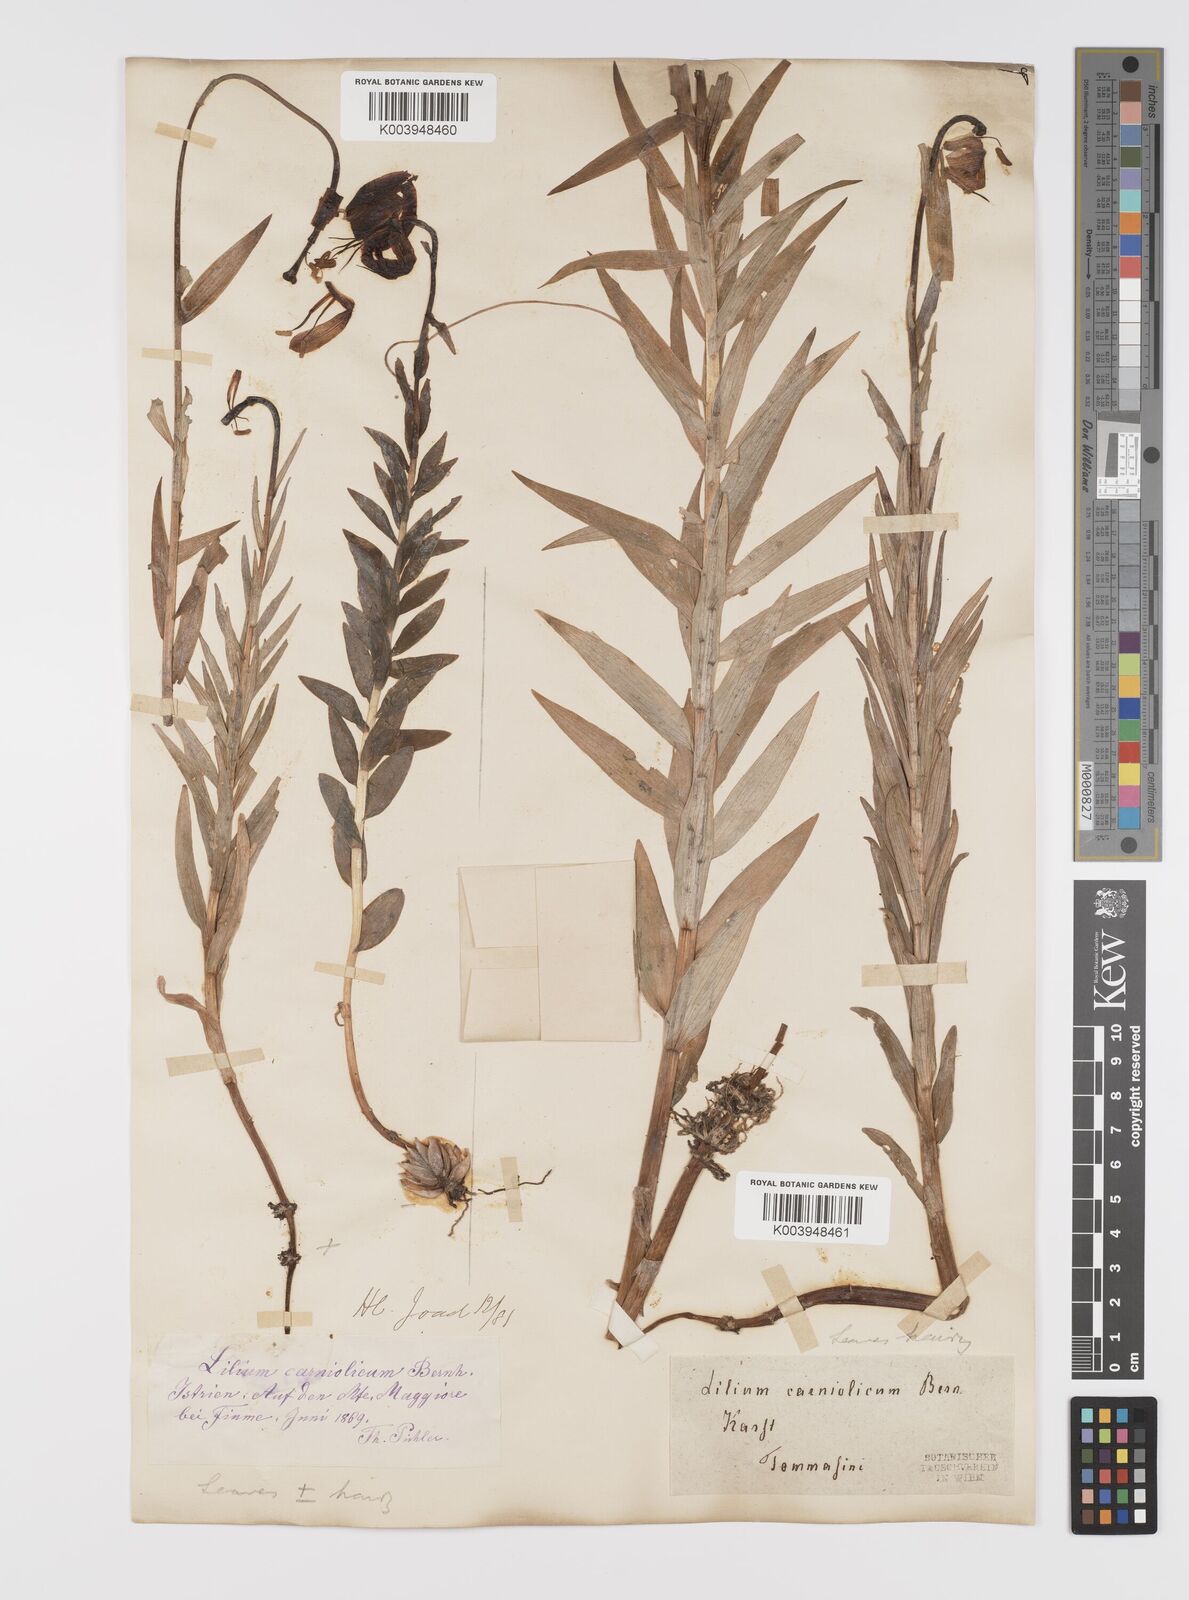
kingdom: Plantae
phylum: Tracheophyta
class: Liliopsida
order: Liliales
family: Liliaceae
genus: Lilium
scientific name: Lilium
